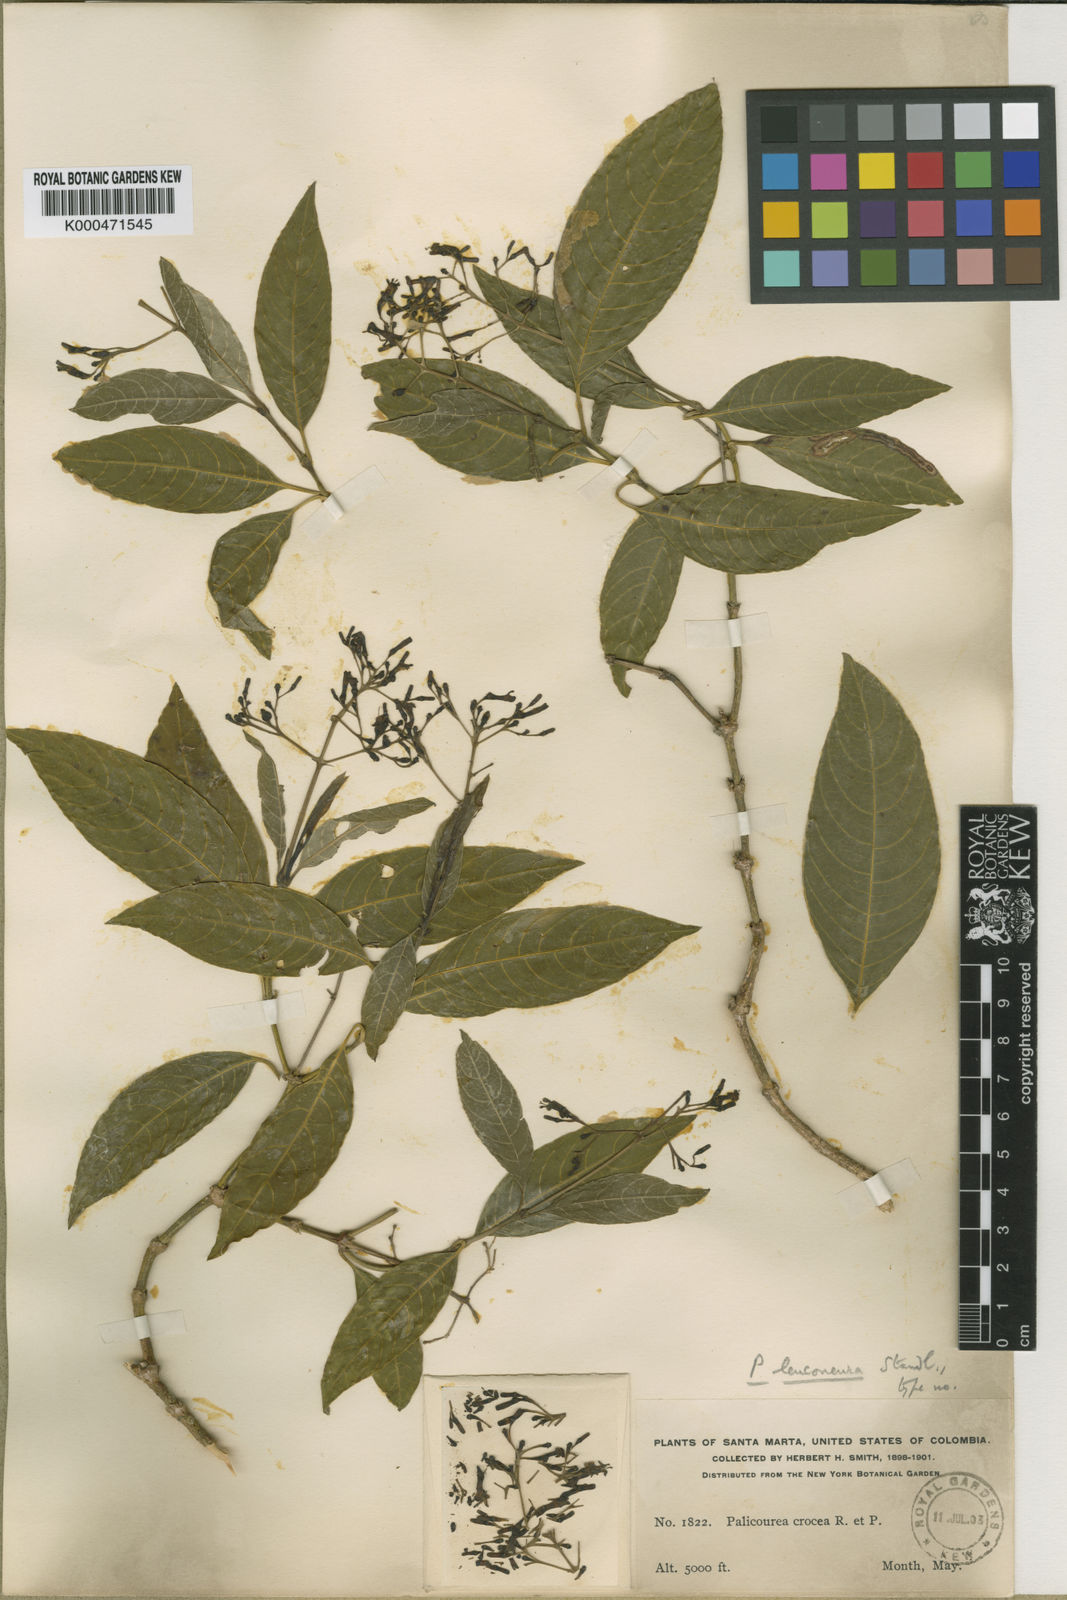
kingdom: Plantae
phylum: Tracheophyta
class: Magnoliopsida
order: Gentianales
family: Rubiaceae
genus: Palicourea
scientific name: Palicourea leuconeura
